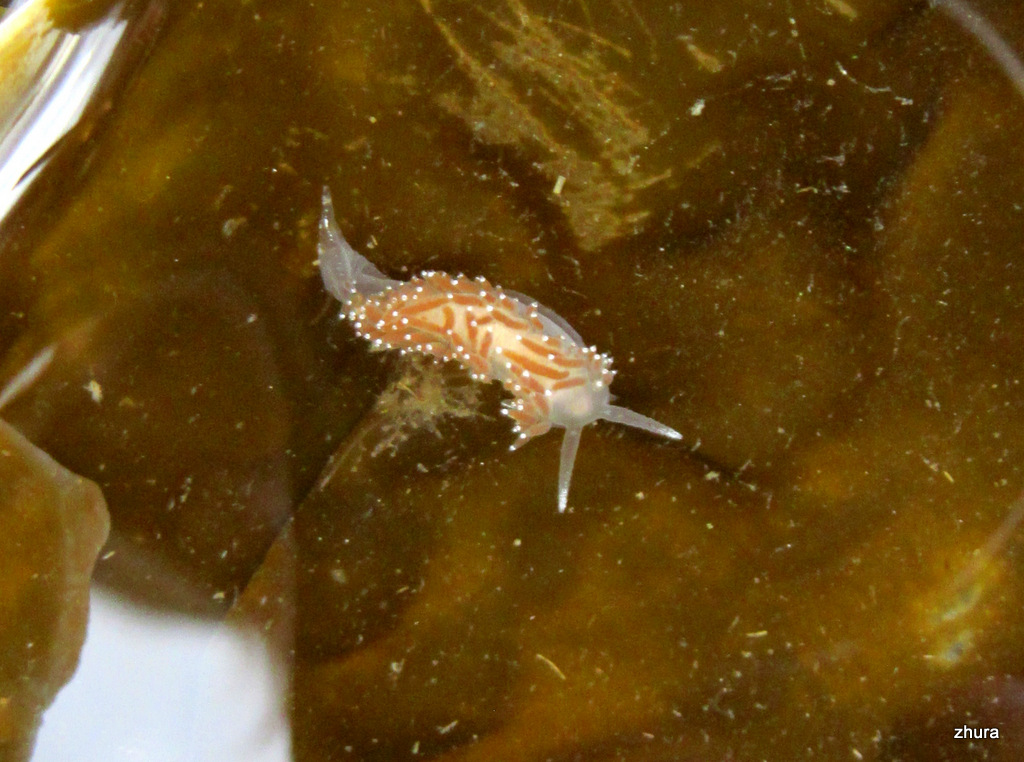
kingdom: Animalia
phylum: Mollusca
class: Gastropoda
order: Nudibranchia
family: Coryphellidae
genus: Coryphella
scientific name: Coryphella verrucosa
